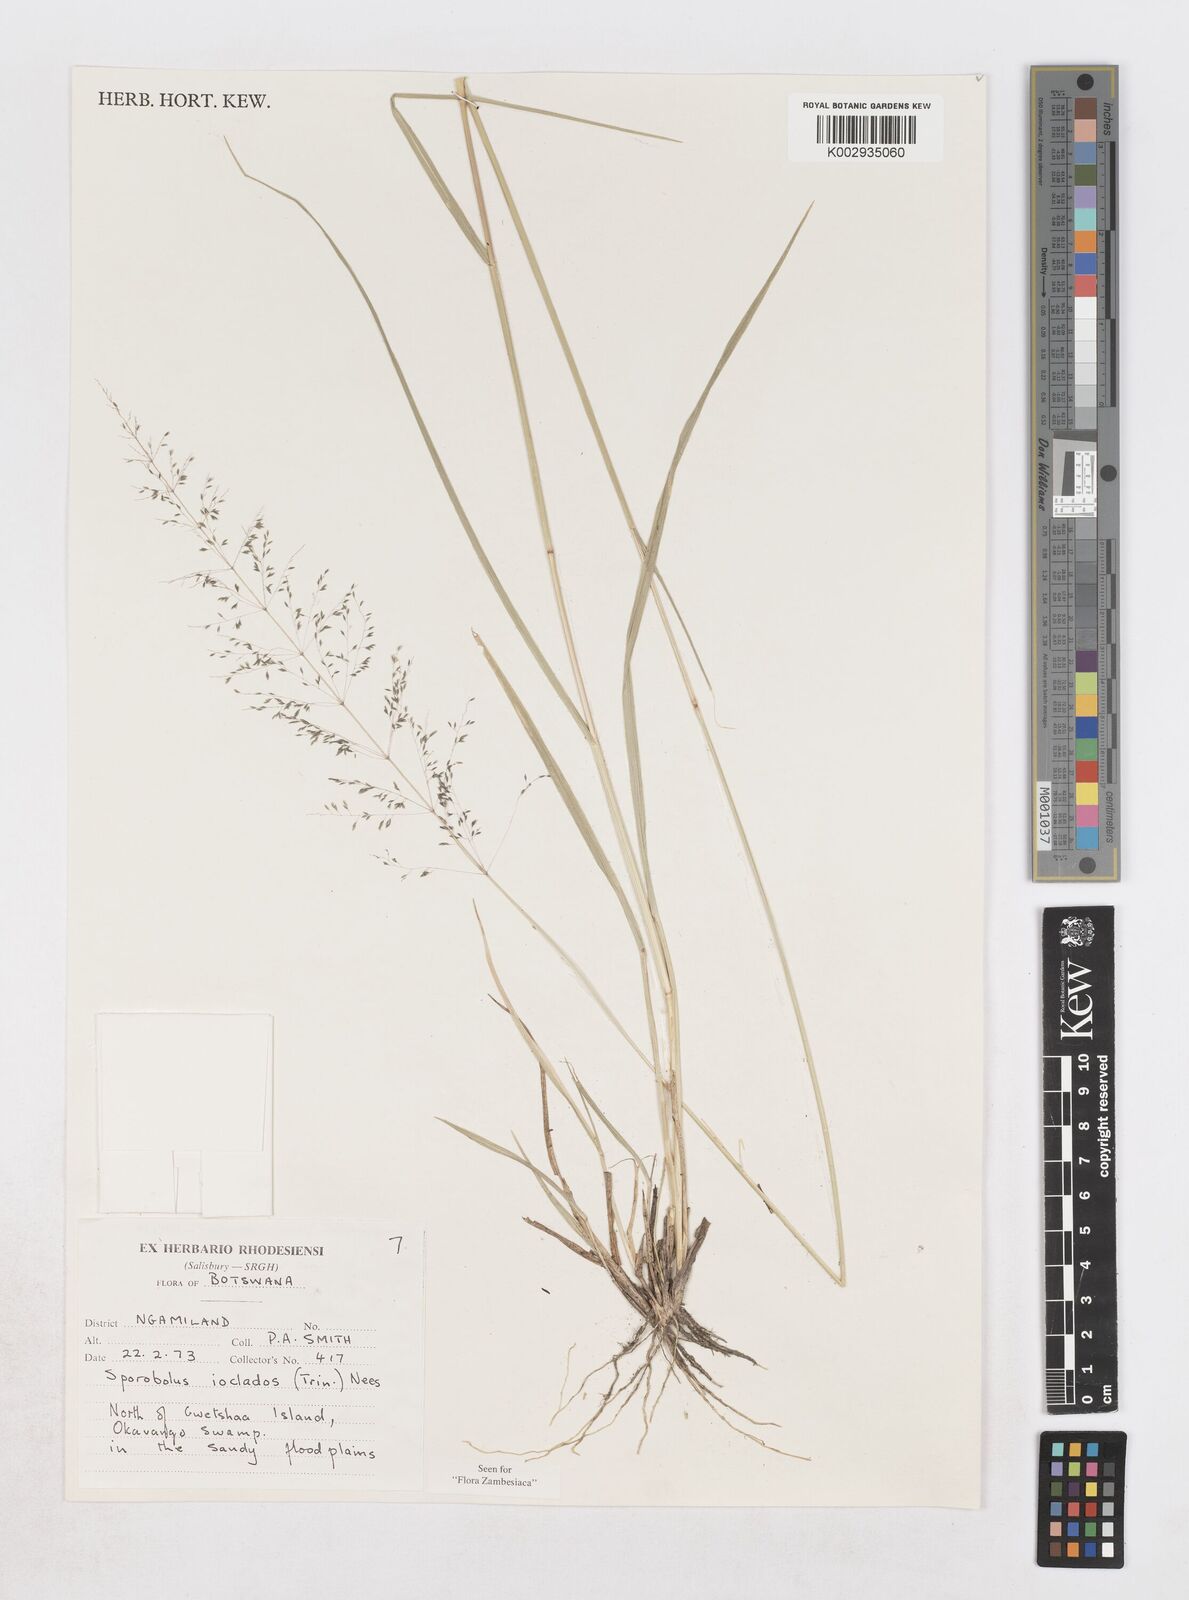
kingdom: Plantae
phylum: Tracheophyta
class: Liliopsida
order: Poales
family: Poaceae
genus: Sporobolus
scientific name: Sporobolus ioclados
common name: Pan dropseed
